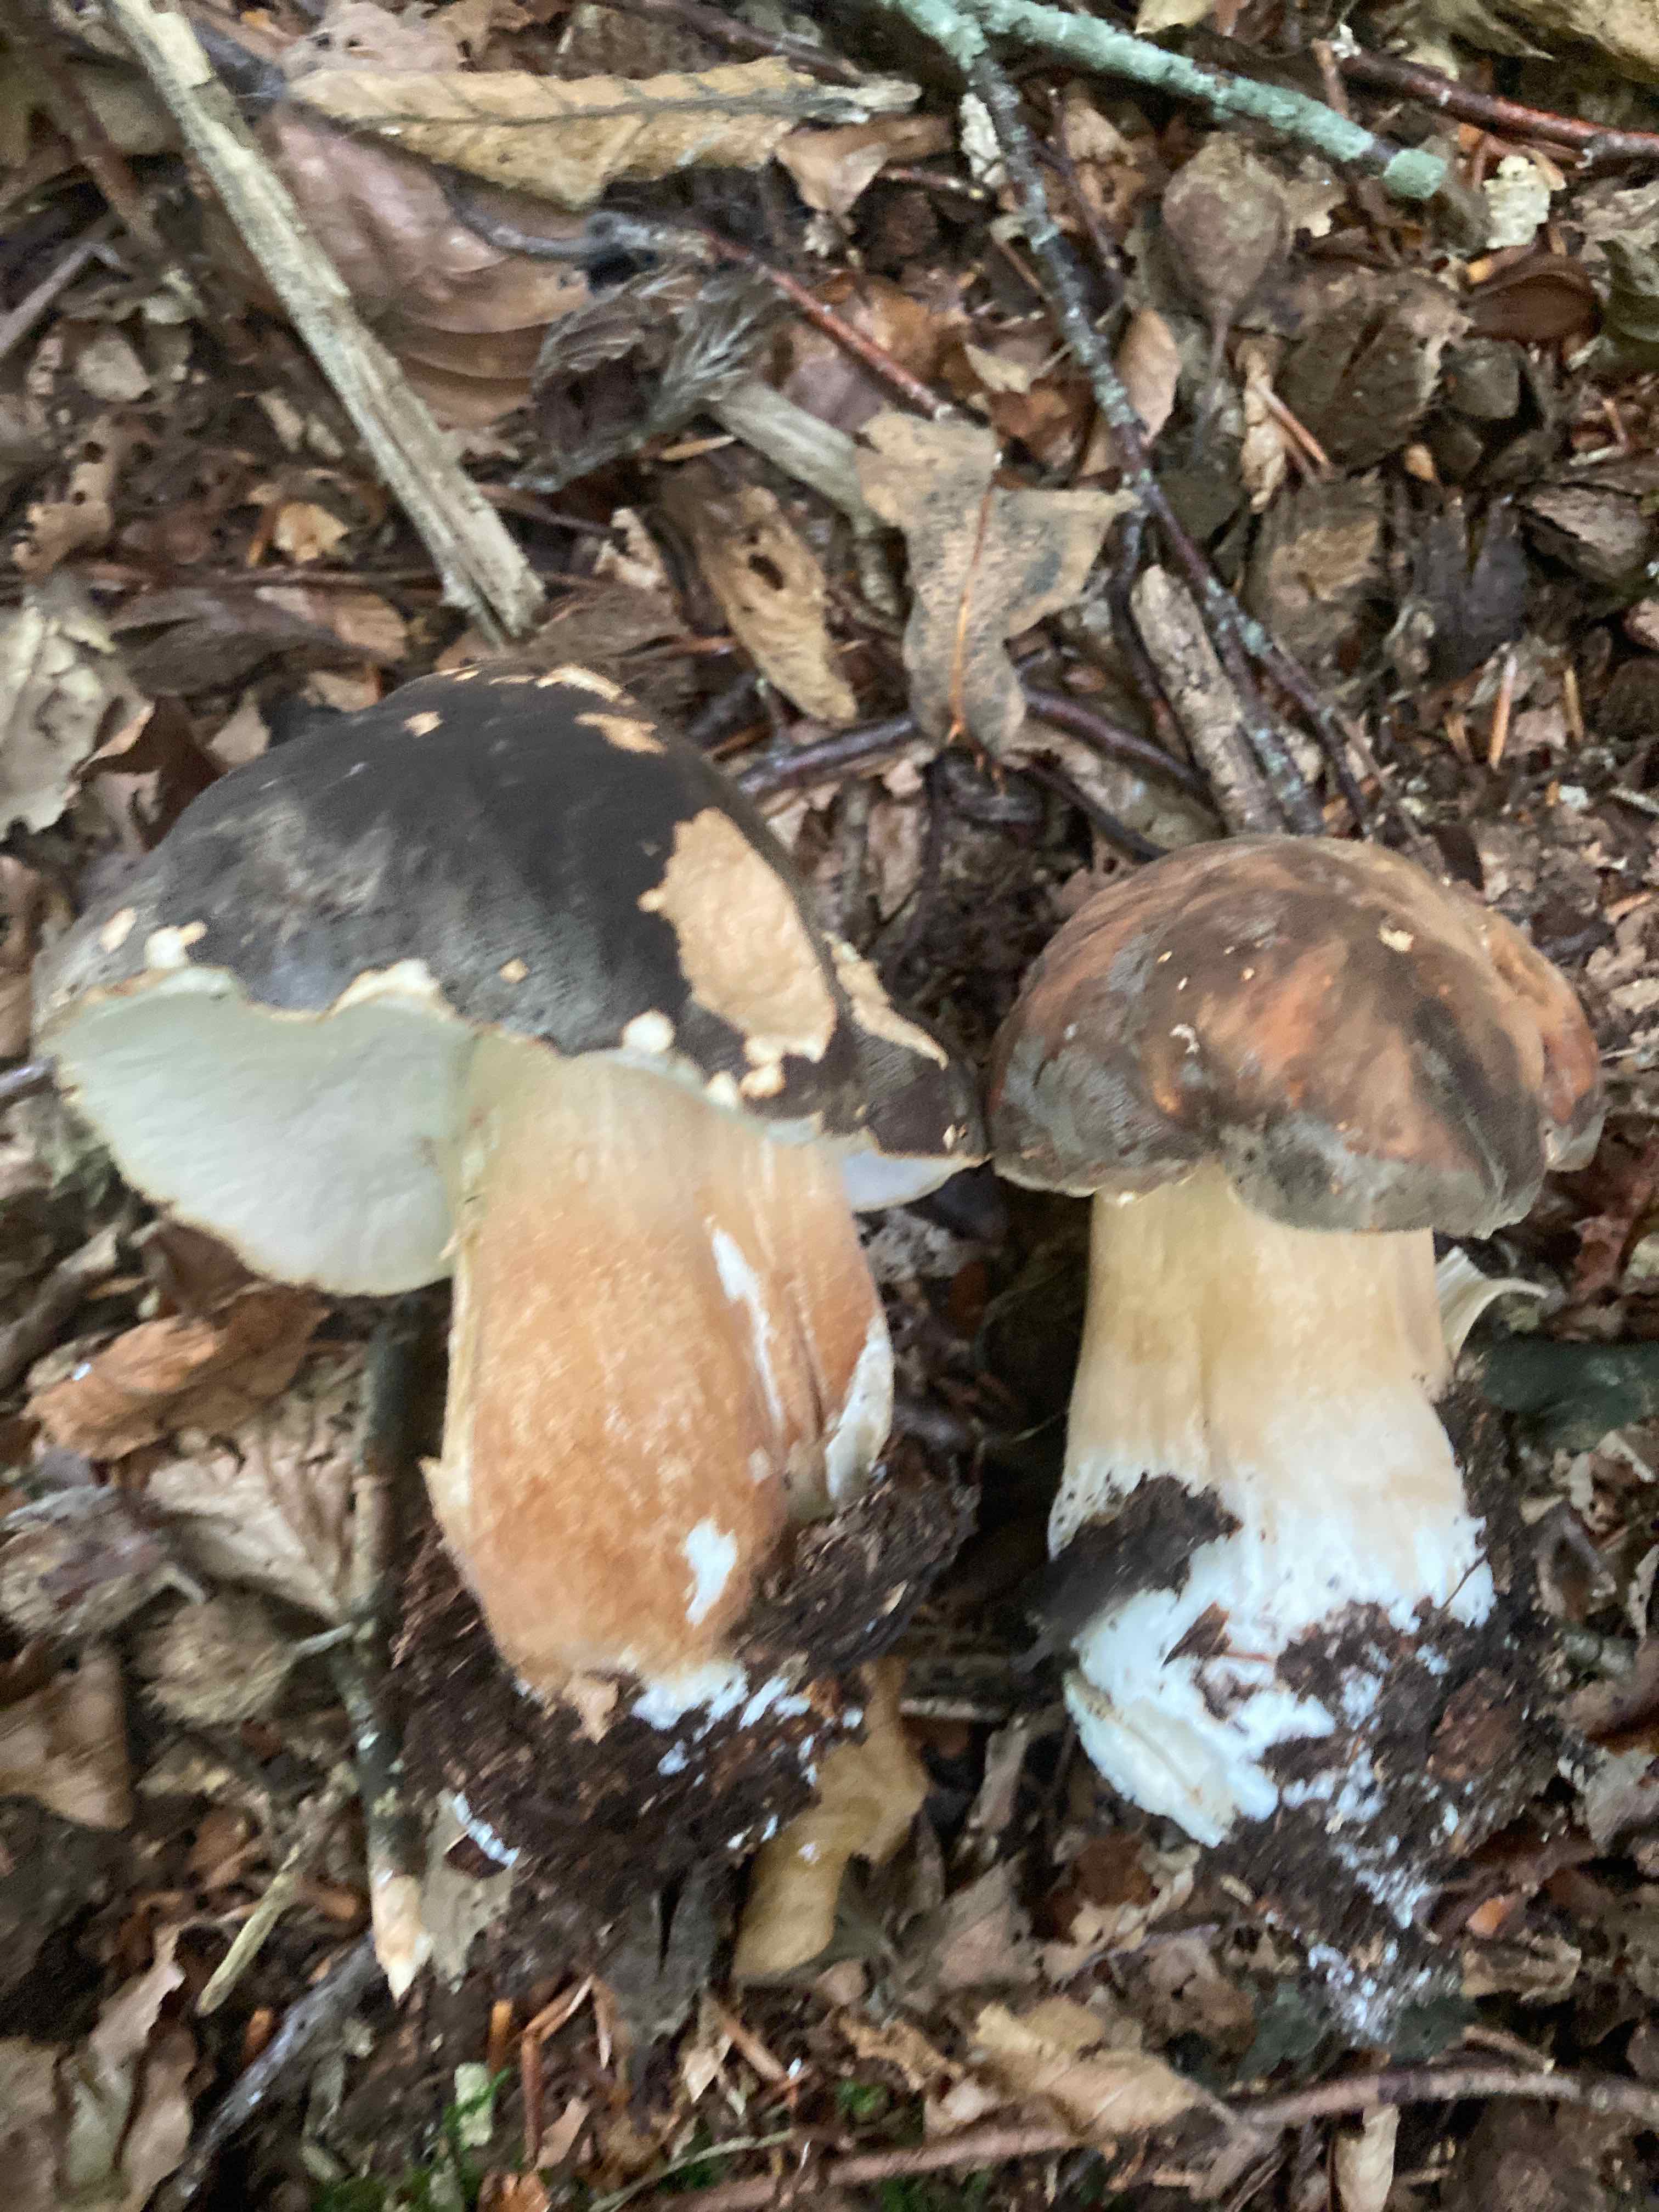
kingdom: Fungi
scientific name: Fungi
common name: bronze-rørhat
